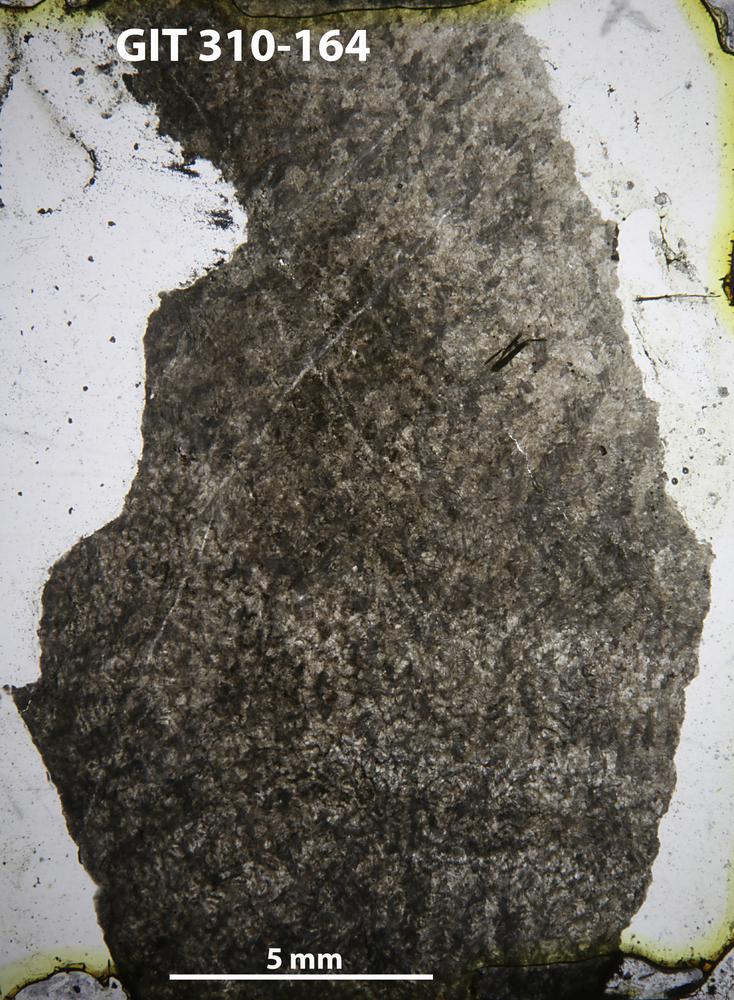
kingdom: Animalia
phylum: Porifera
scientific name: Porifera
